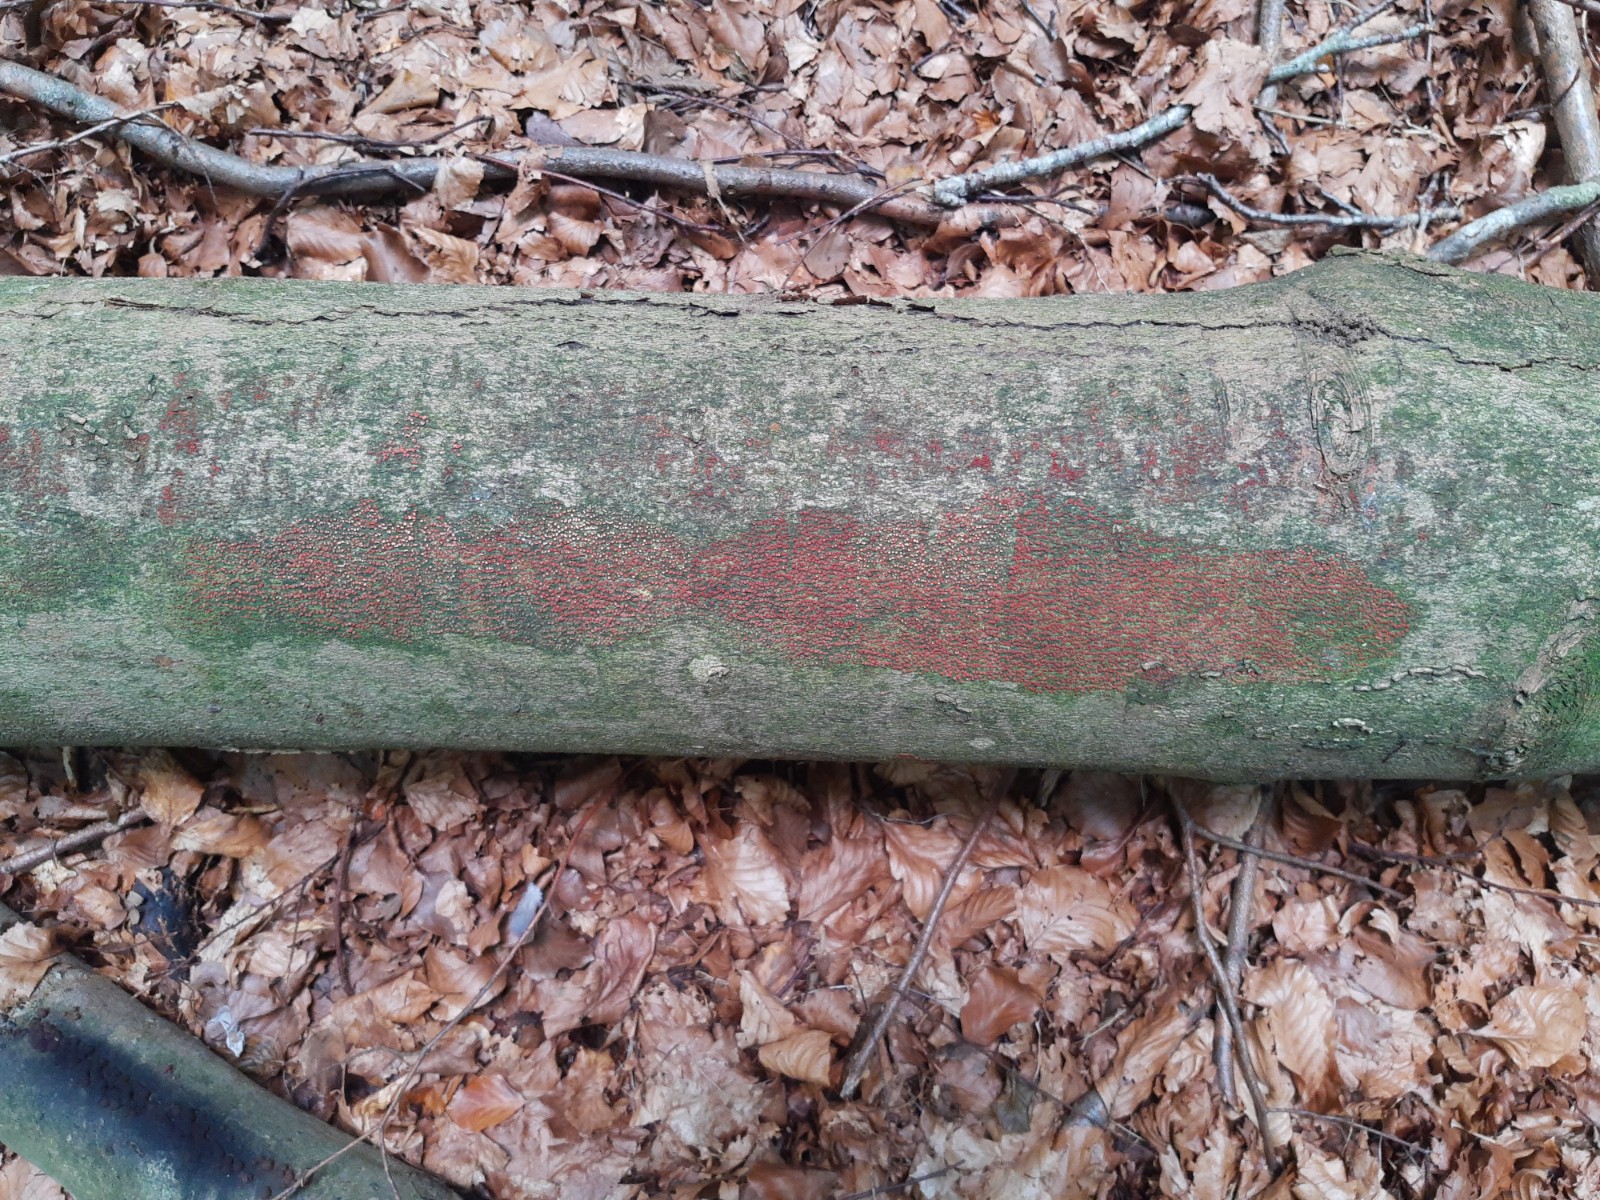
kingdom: Fungi
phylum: Ascomycota
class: Sordariomycetes
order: Hypocreales
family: Nectriaceae
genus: Neonectria
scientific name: Neonectria coccinea
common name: bøgebark-cinnobersvamp
